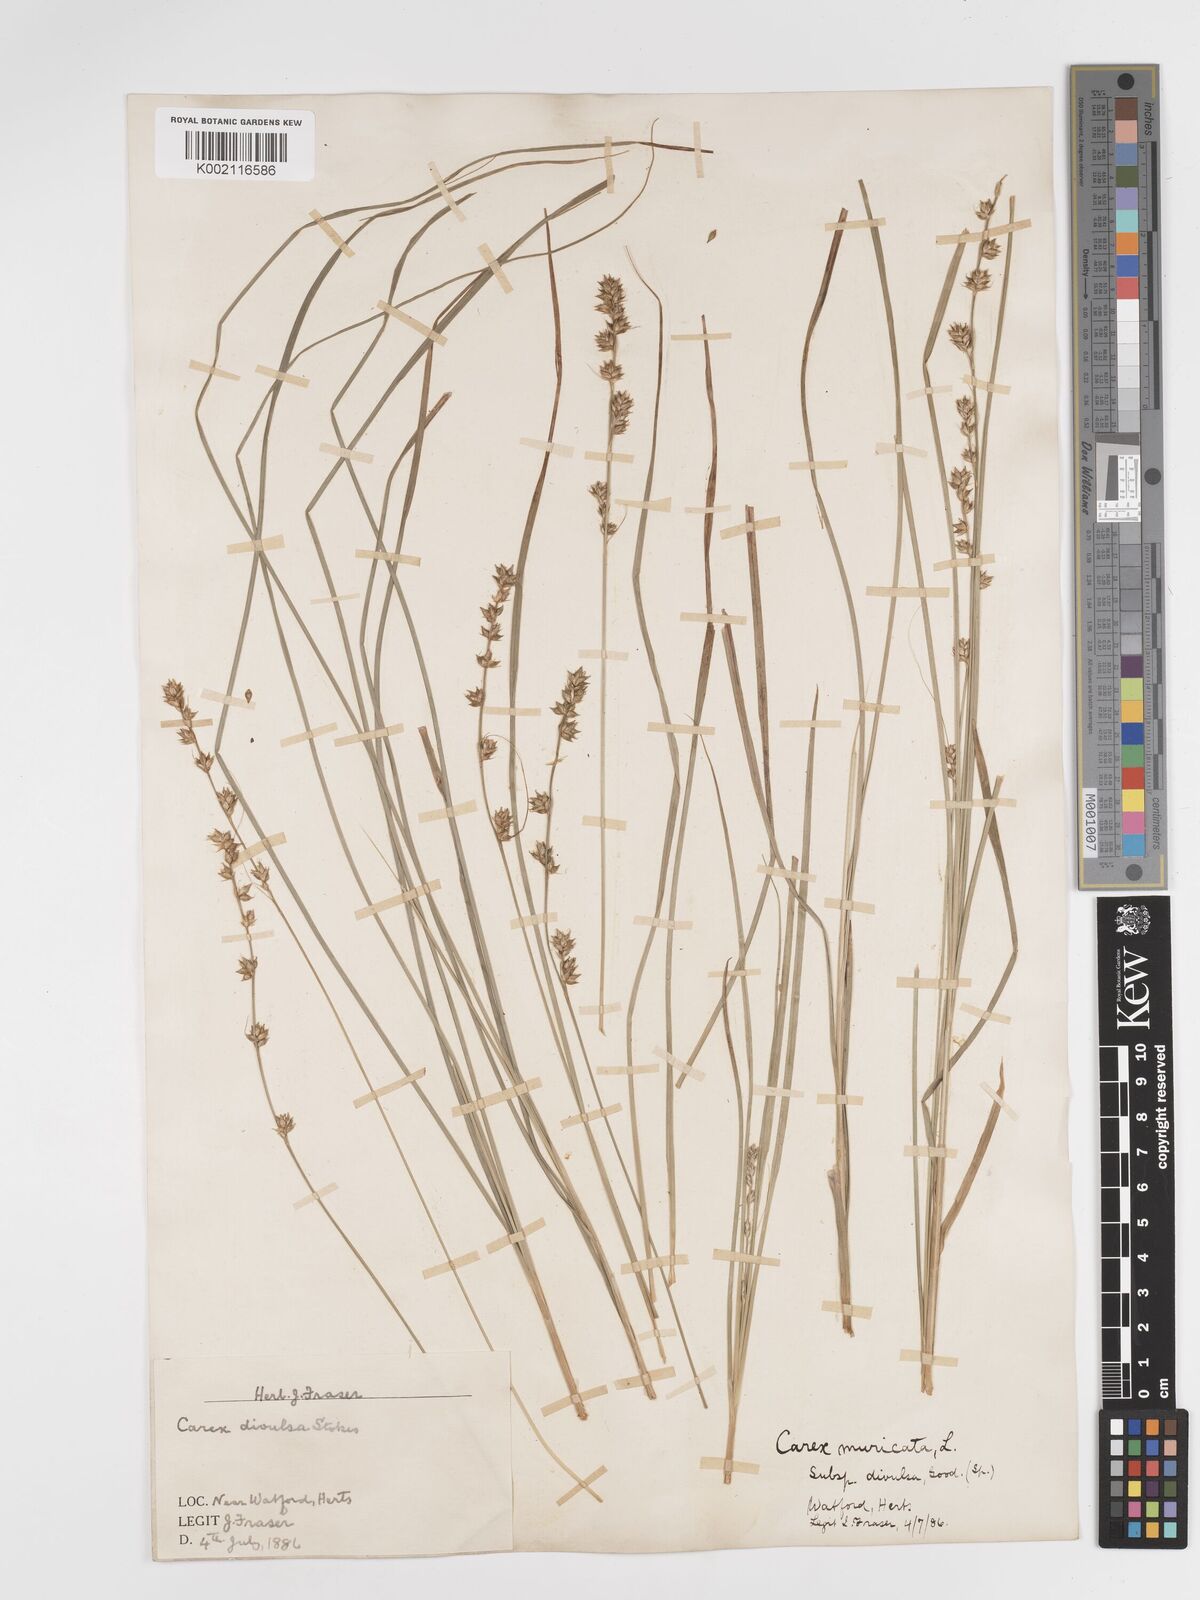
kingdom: Plantae
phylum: Tracheophyta
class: Liliopsida
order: Poales
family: Cyperaceae
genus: Carex
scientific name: Carex divulsa
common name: Grassland sedge
